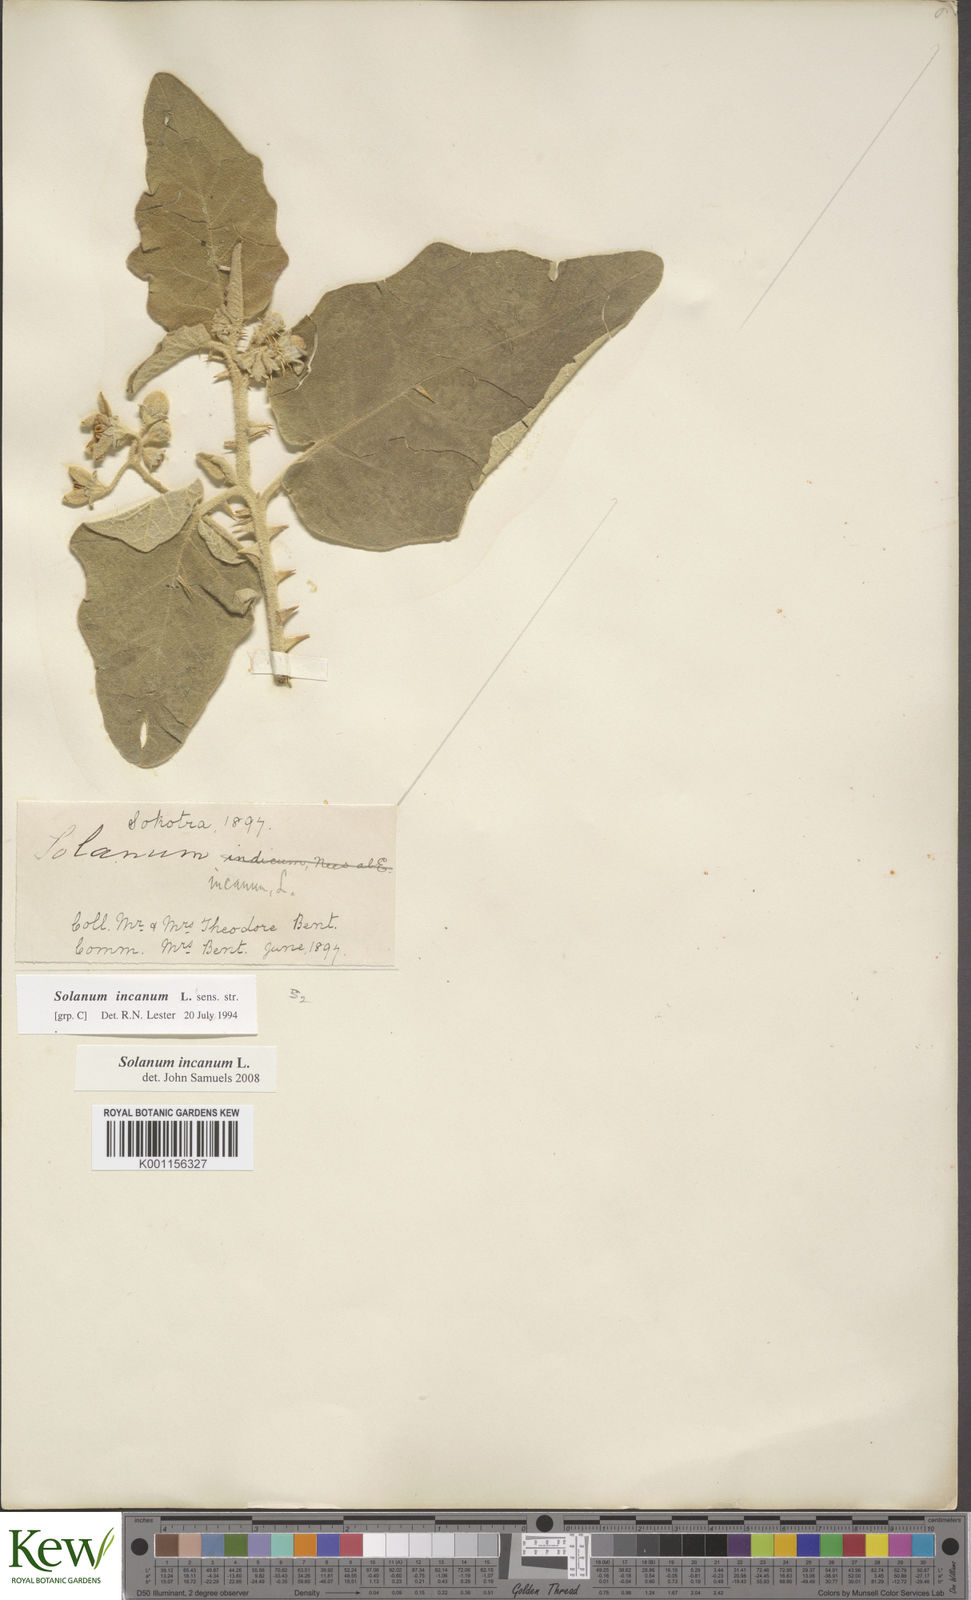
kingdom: Plantae
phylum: Tracheophyta
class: Magnoliopsida
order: Solanales
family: Solanaceae
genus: Solanum
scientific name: Solanum incanum
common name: Bitter apple
